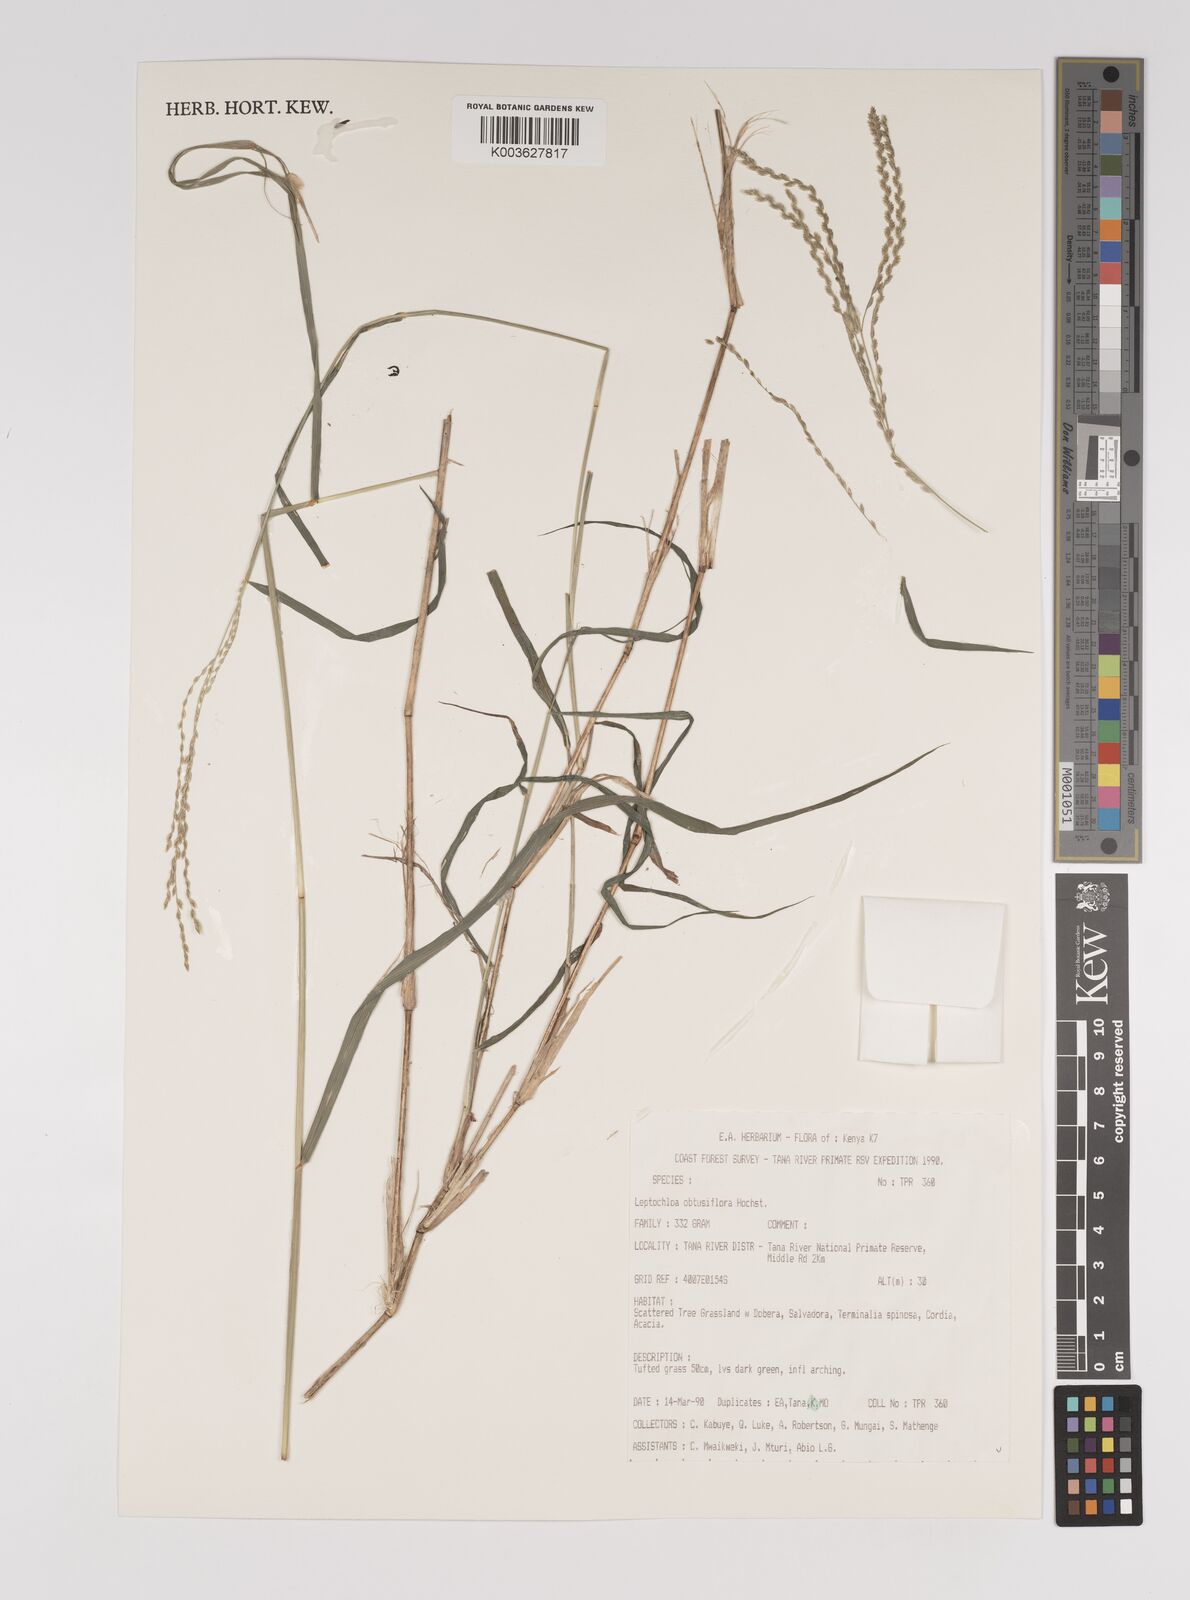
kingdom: Plantae
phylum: Tracheophyta
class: Liliopsida
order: Poales
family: Poaceae
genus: Disakisperma
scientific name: Disakisperma obtusiflorum
